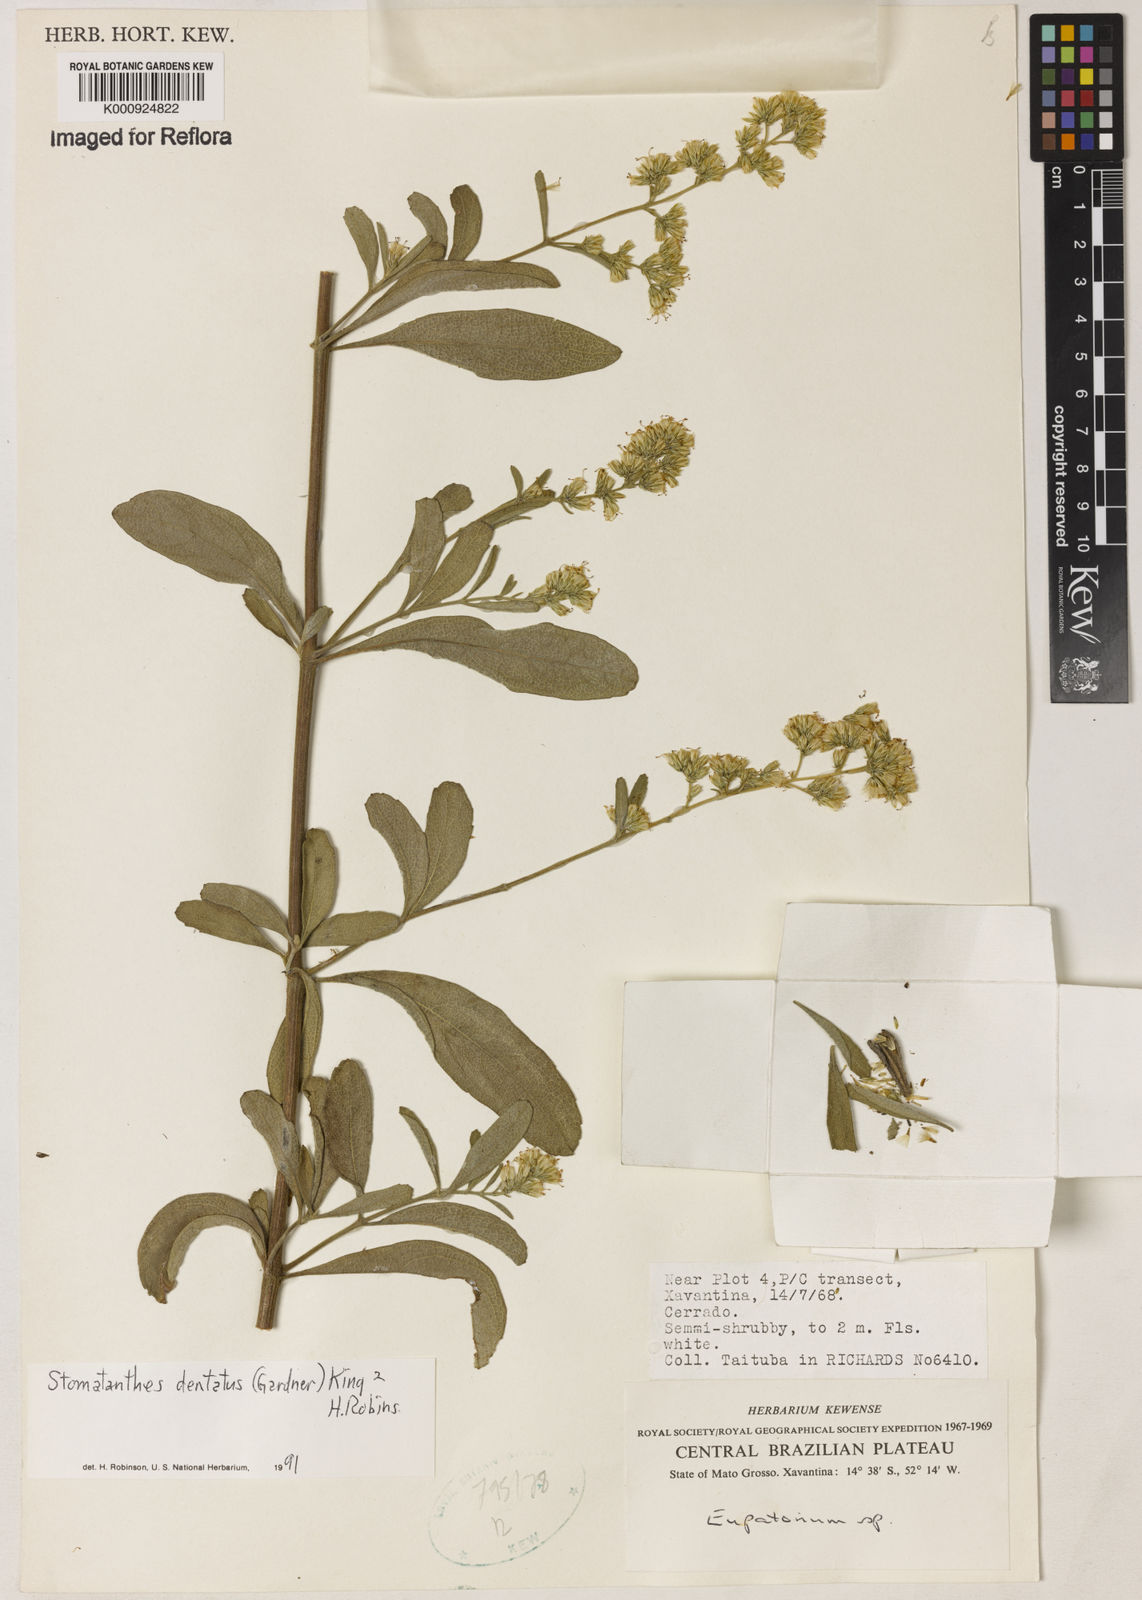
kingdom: Plantae
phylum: Tracheophyta
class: Magnoliopsida
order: Asterales
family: Asteraceae
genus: Stomatanthes
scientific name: Stomatanthes dentatus
